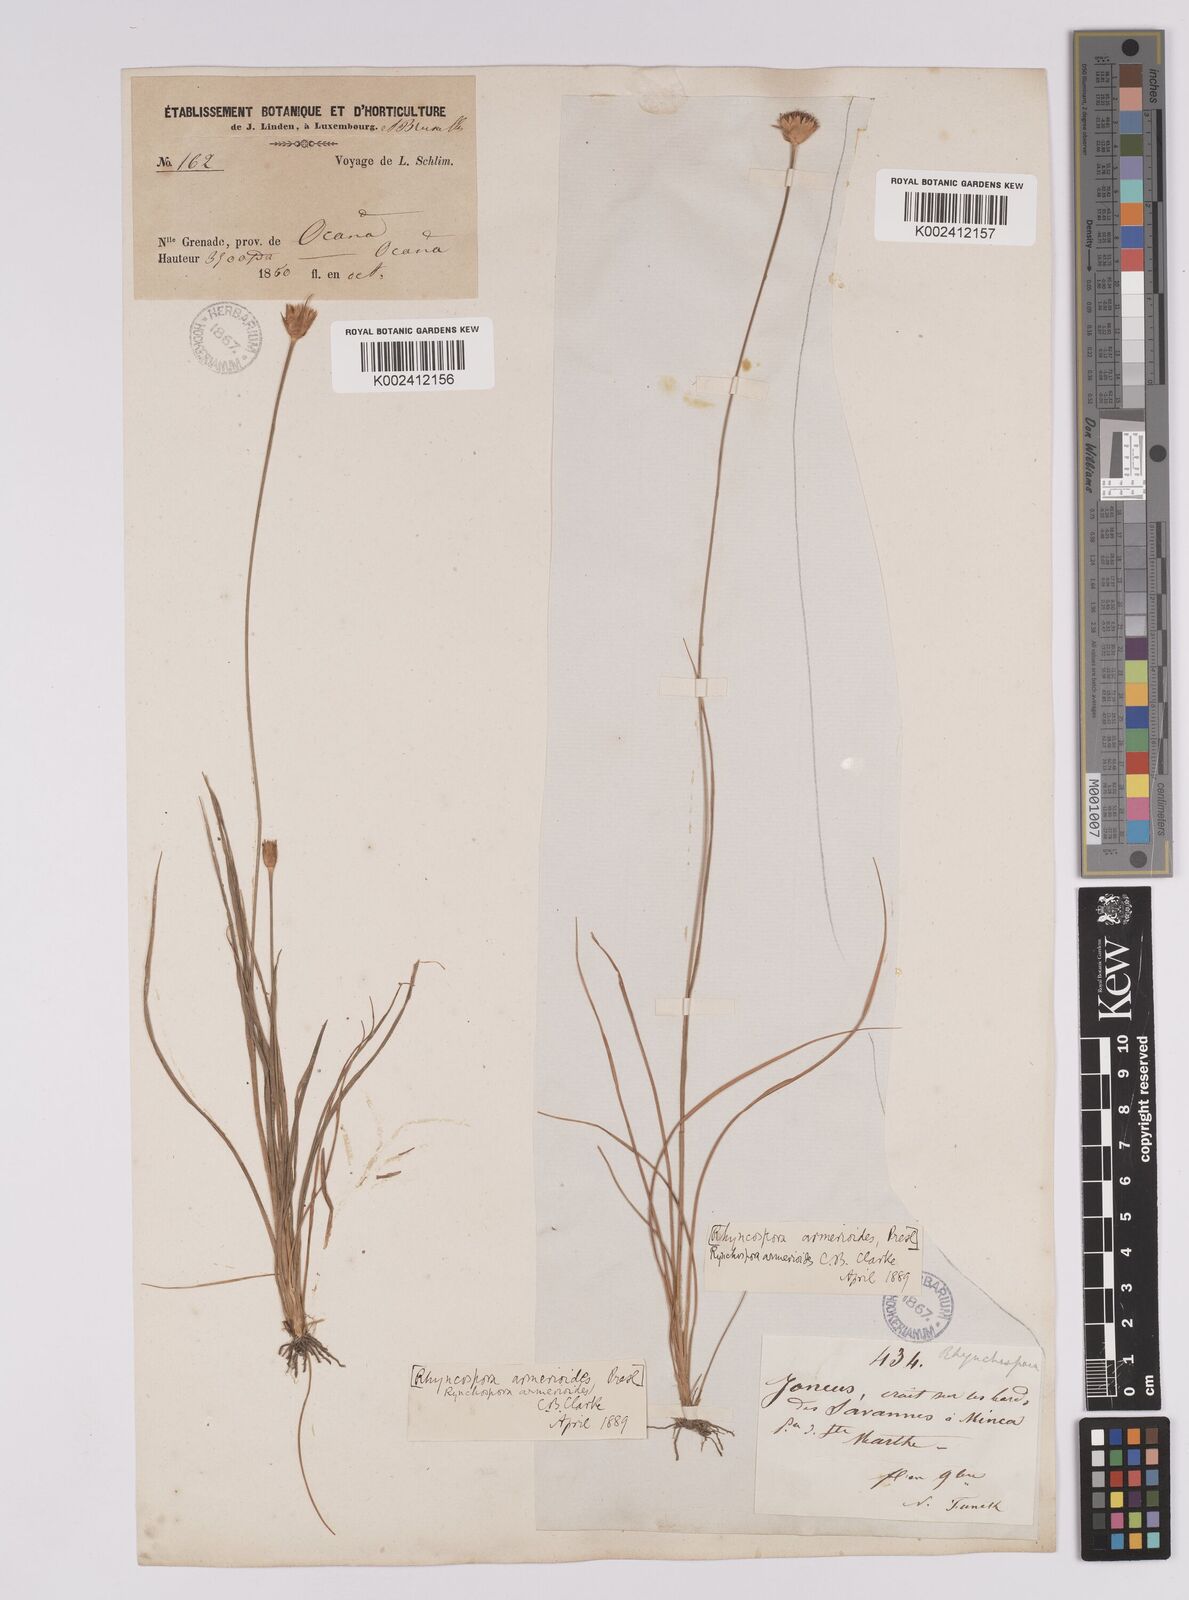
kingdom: Plantae
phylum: Tracheophyta
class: Liliopsida
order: Poales
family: Cyperaceae
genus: Rhynchospora
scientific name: Rhynchospora armerioides
